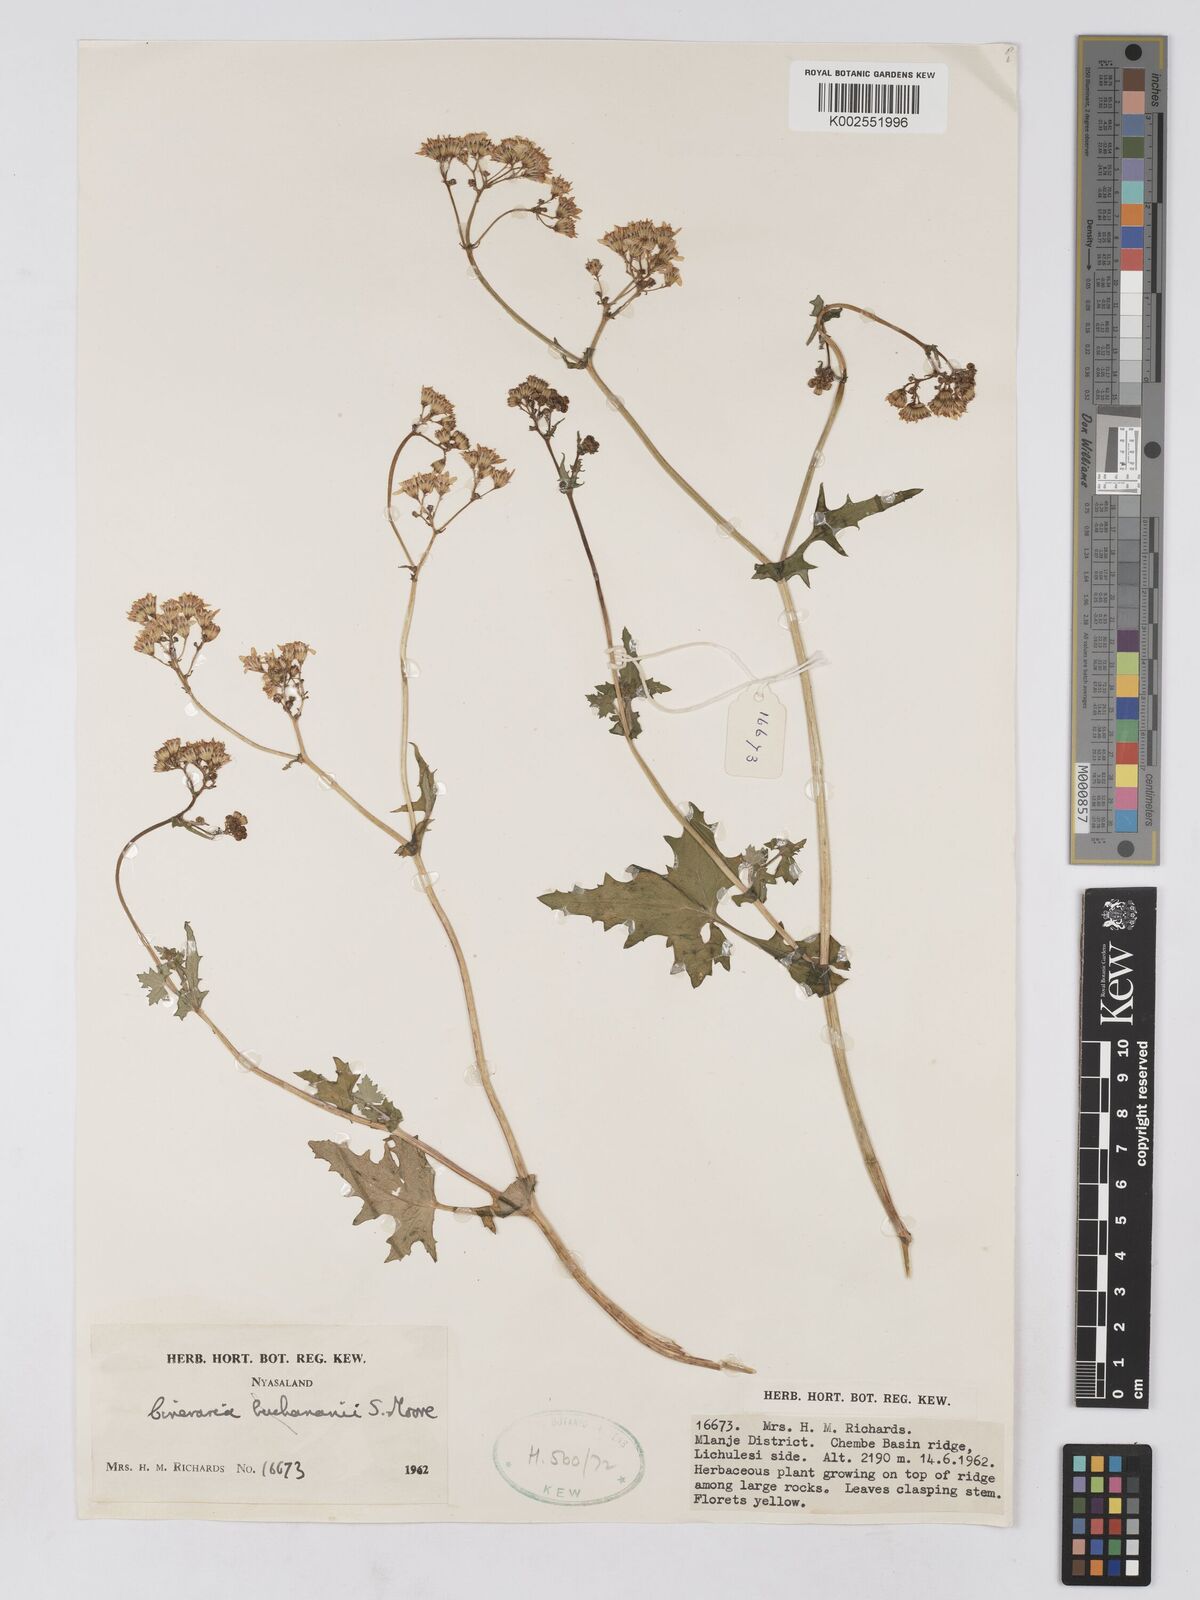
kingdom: Plantae
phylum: Tracheophyta
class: Magnoliopsida
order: Asterales
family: Asteraceae
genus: Cineraria
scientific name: Cineraria deltoidea
